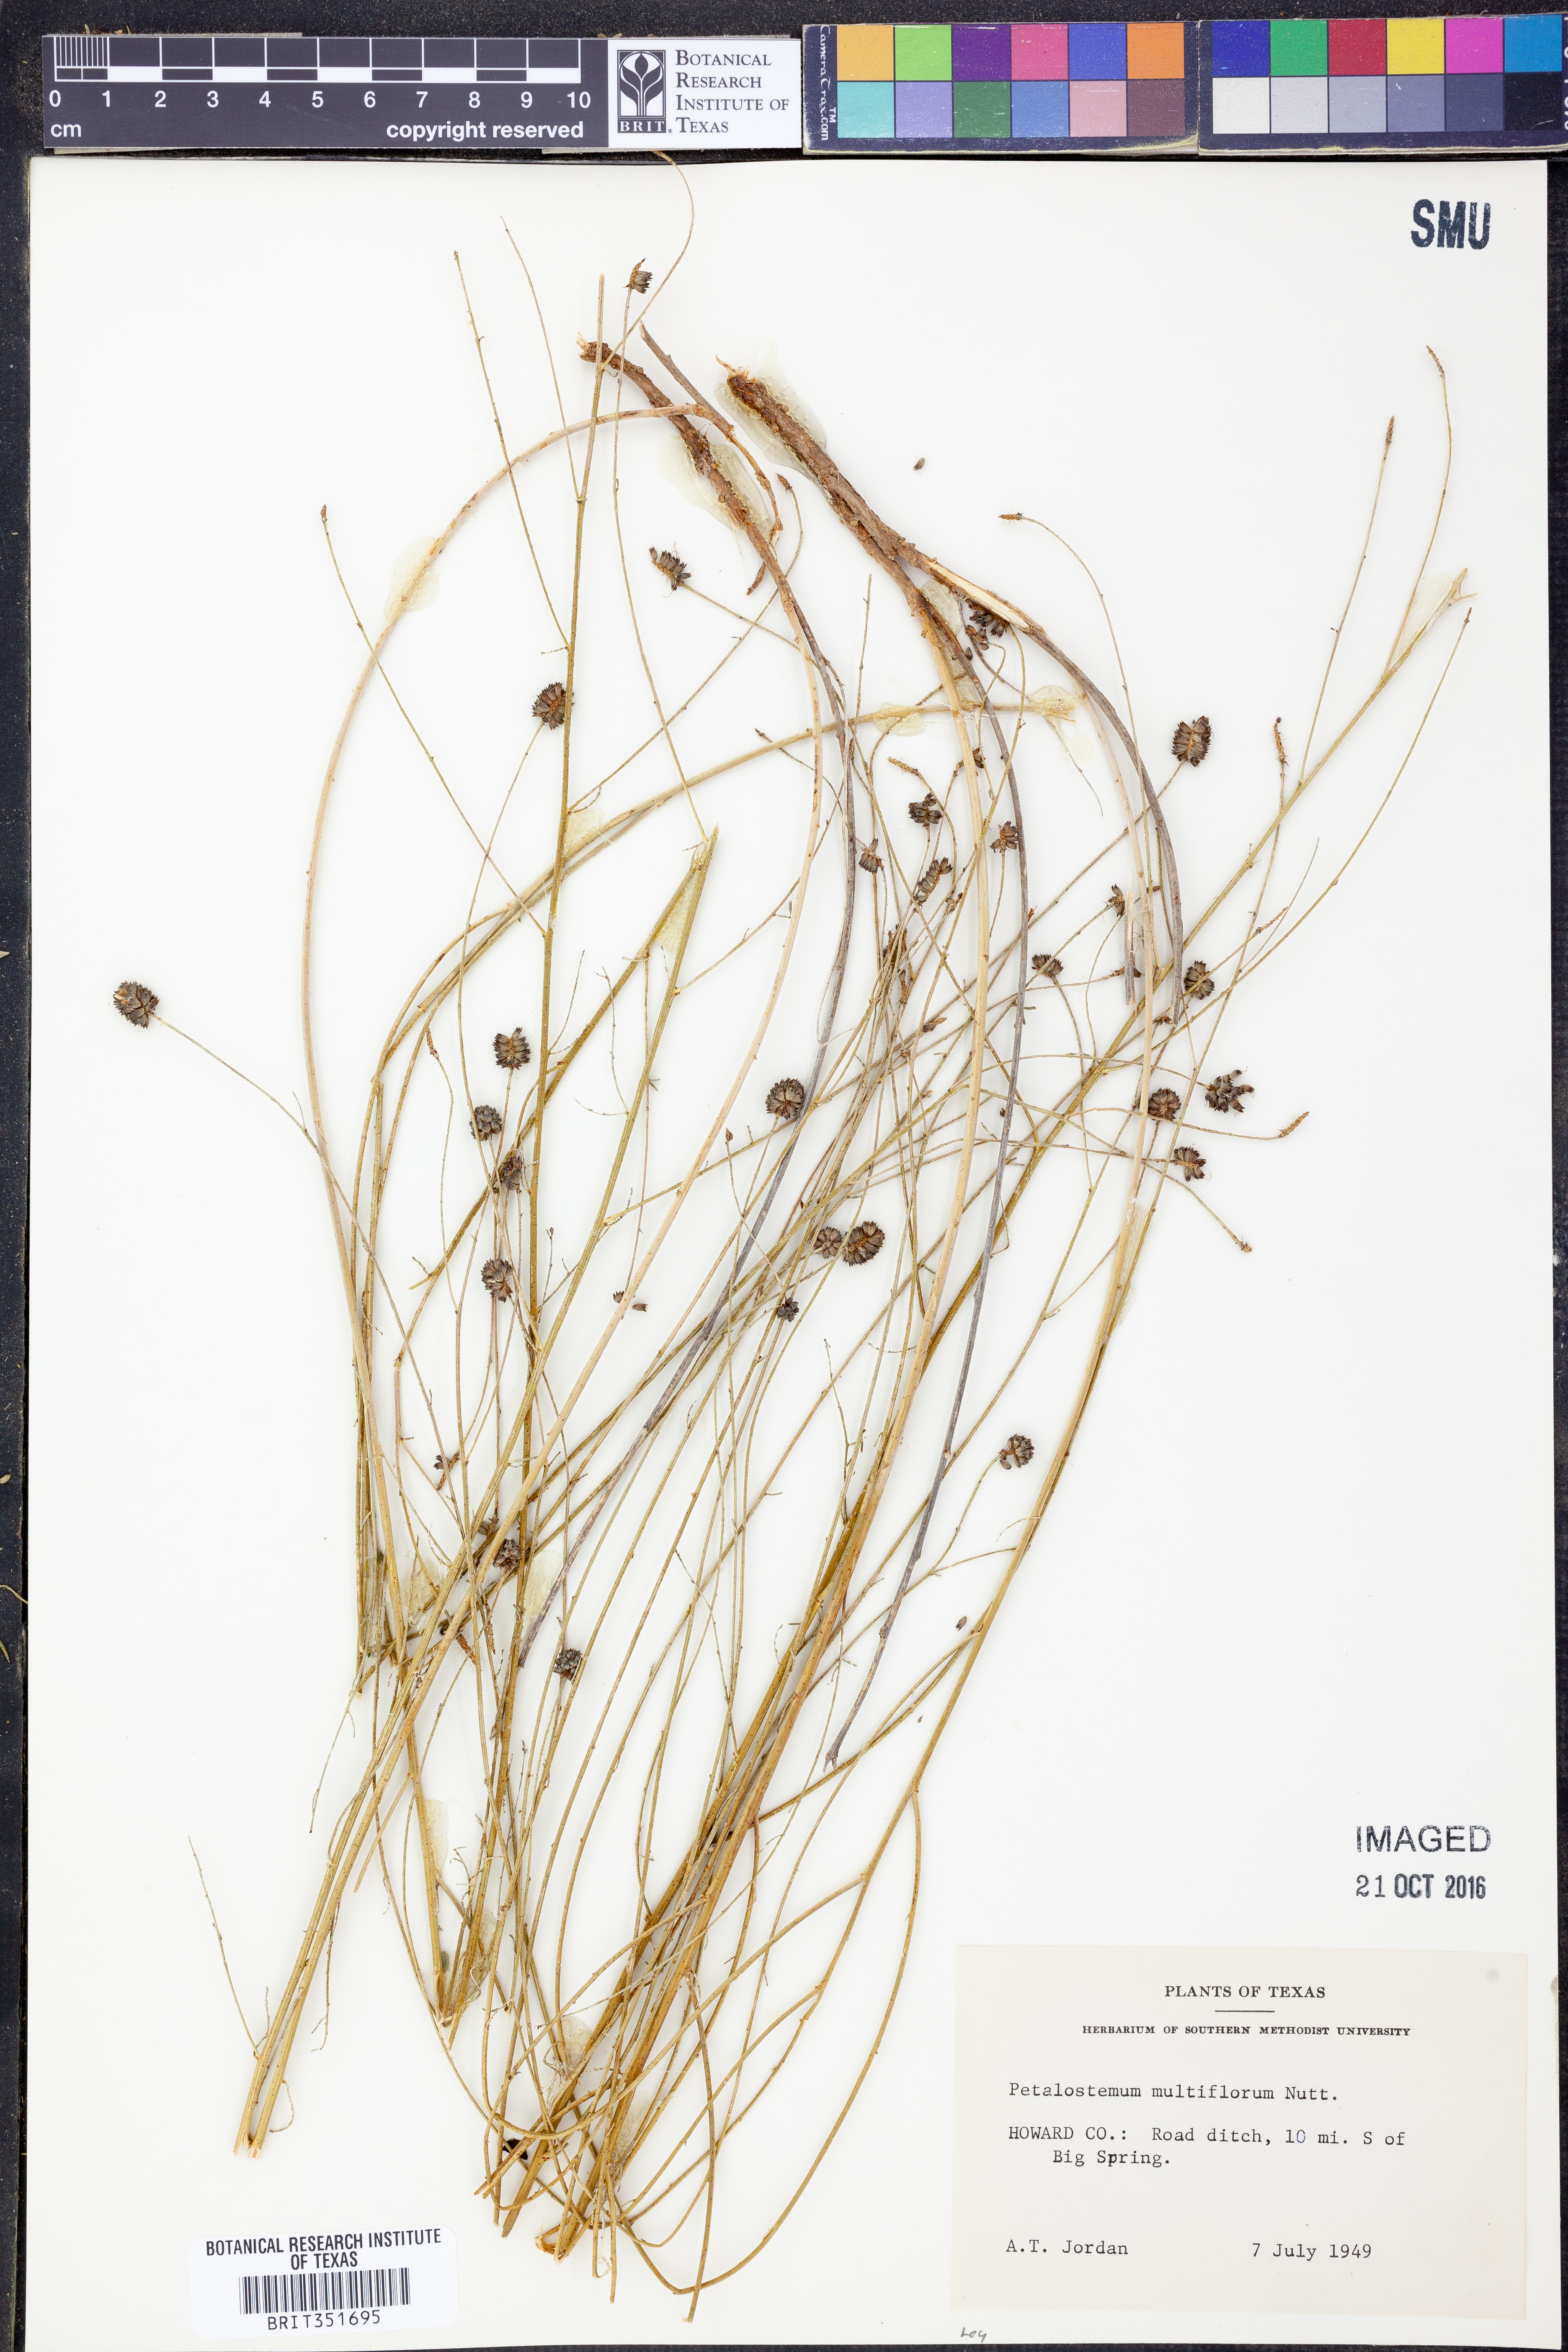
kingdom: Plantae
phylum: Tracheophyta
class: Magnoliopsida
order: Fabales
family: Fabaceae
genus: Dalea
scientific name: Dalea multiflora
